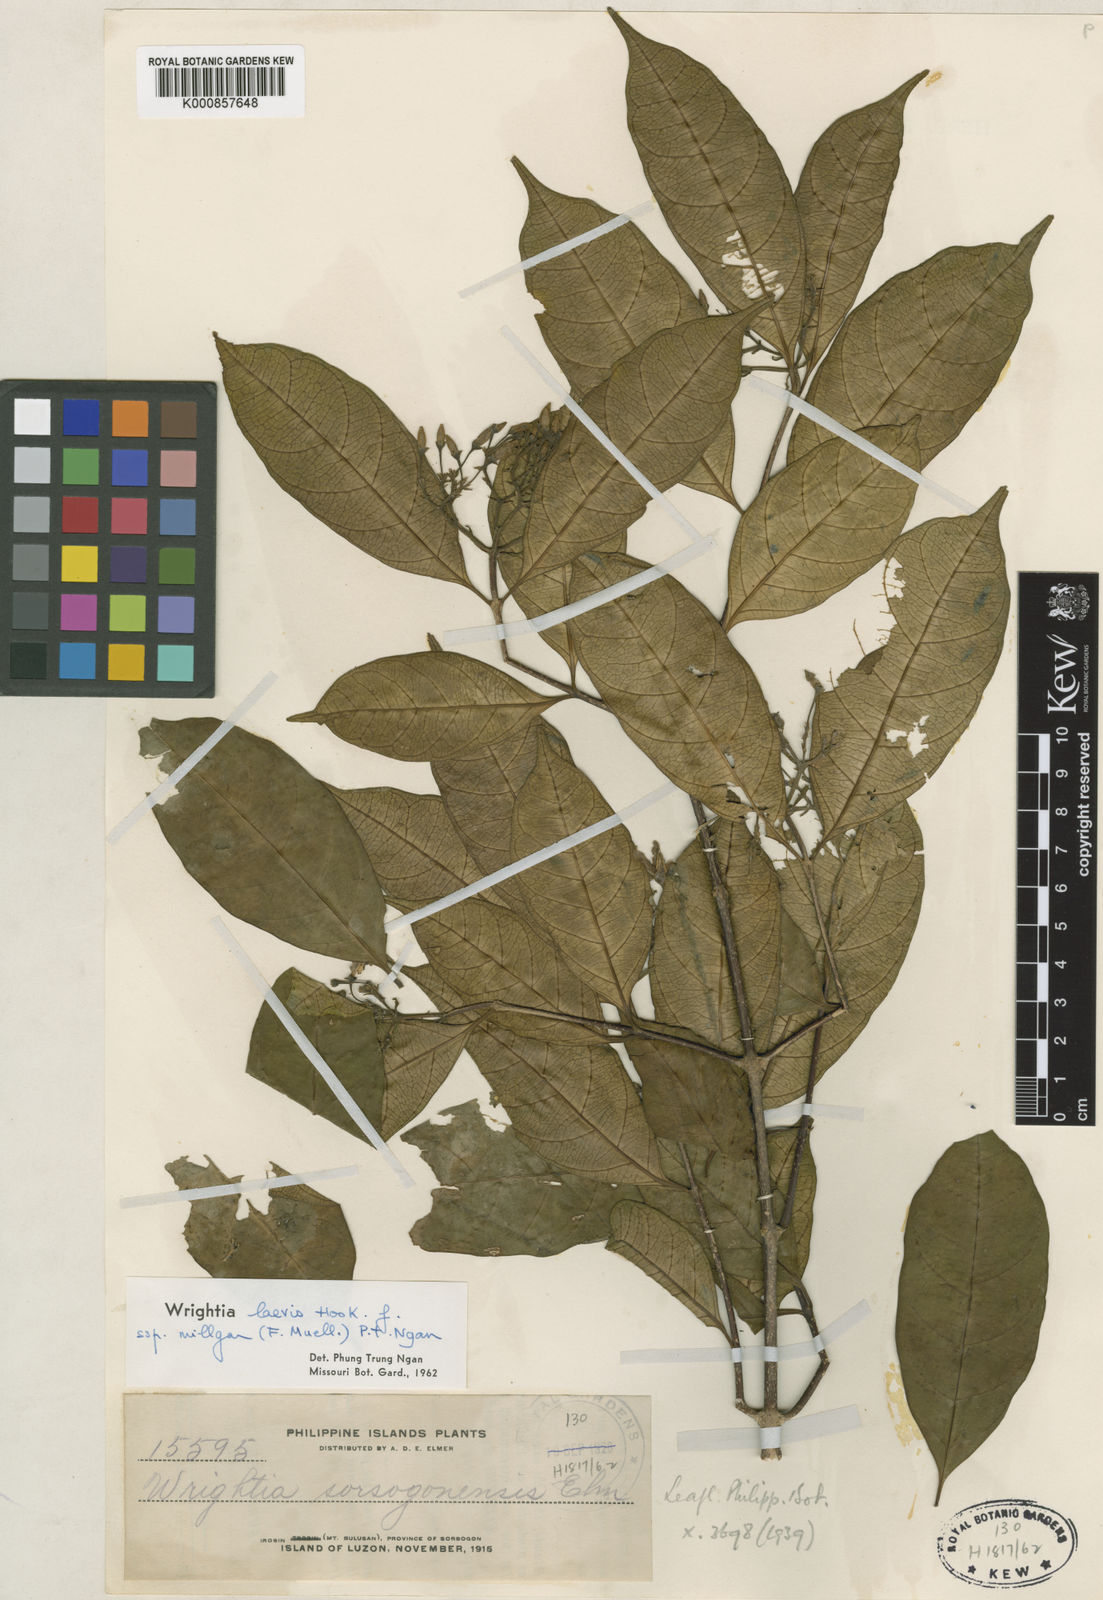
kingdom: Plantae
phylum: Tracheophyta
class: Magnoliopsida
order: Gentianales
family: Apocynaceae
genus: Wrightia
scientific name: Wrightia laevis
